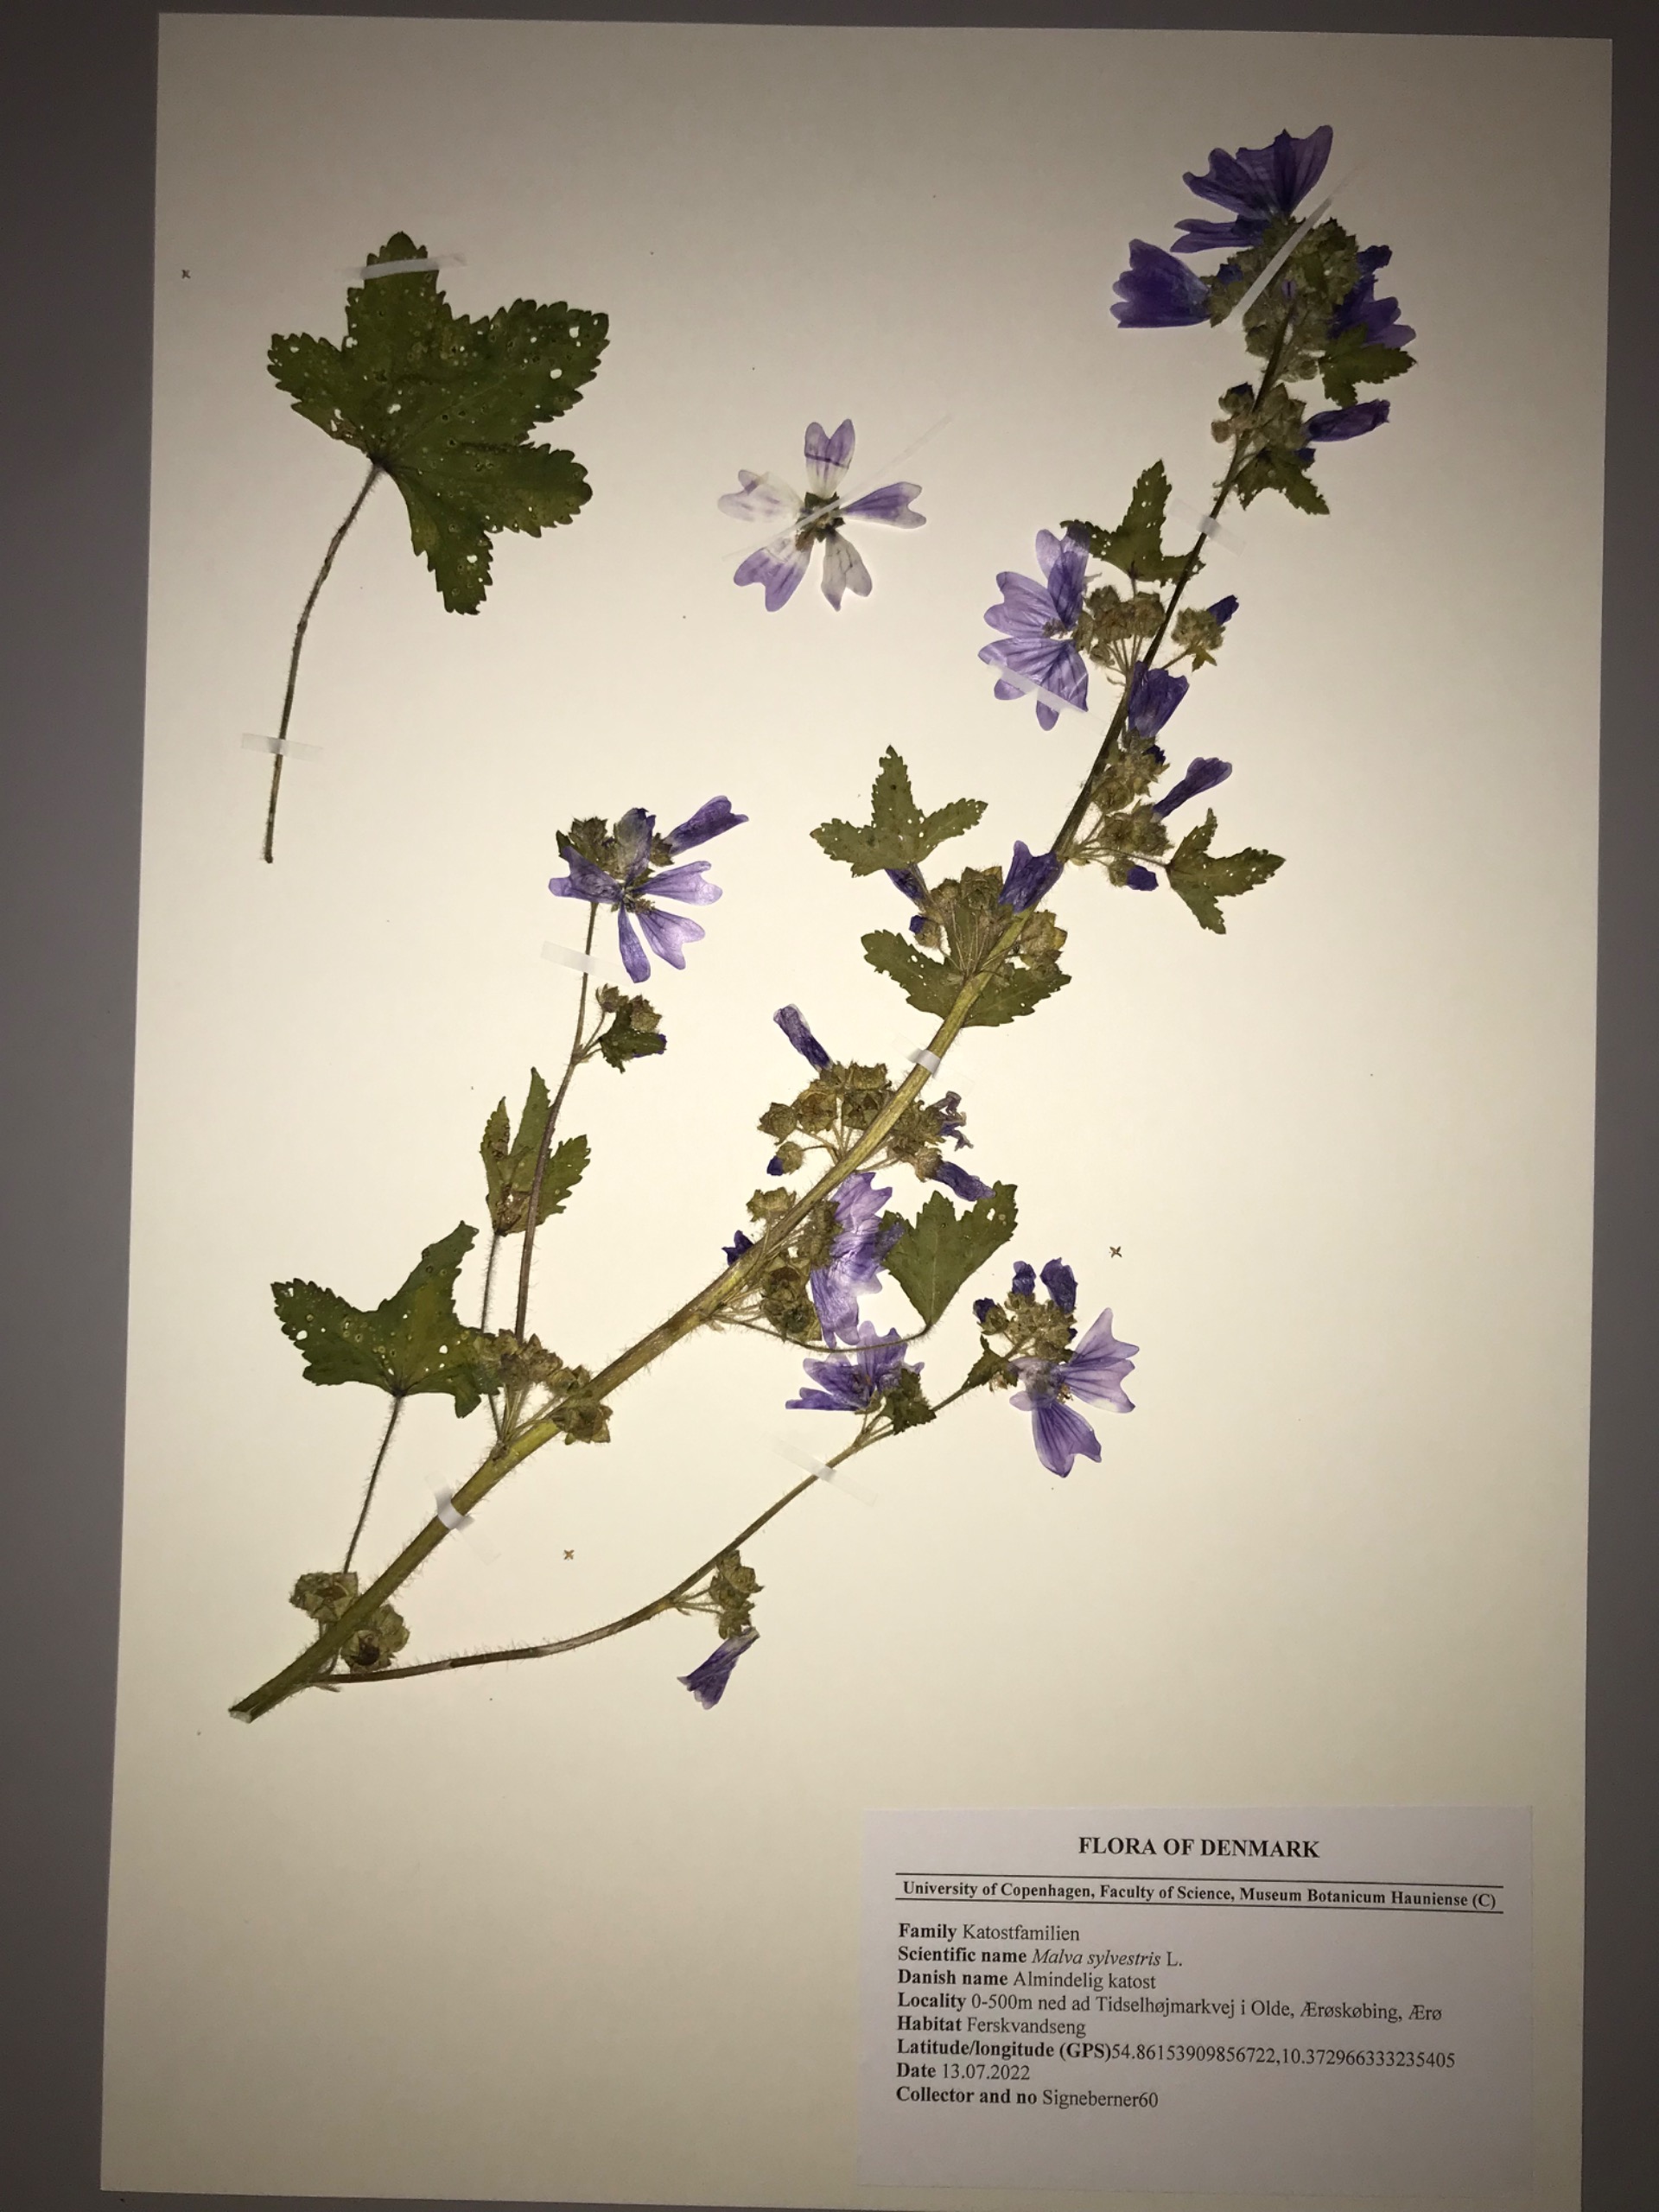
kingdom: Plantae
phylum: Tracheophyta
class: Magnoliopsida
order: Malvales
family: Malvaceae
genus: Malva
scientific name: Malva sylvestris
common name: Almindelig katost
